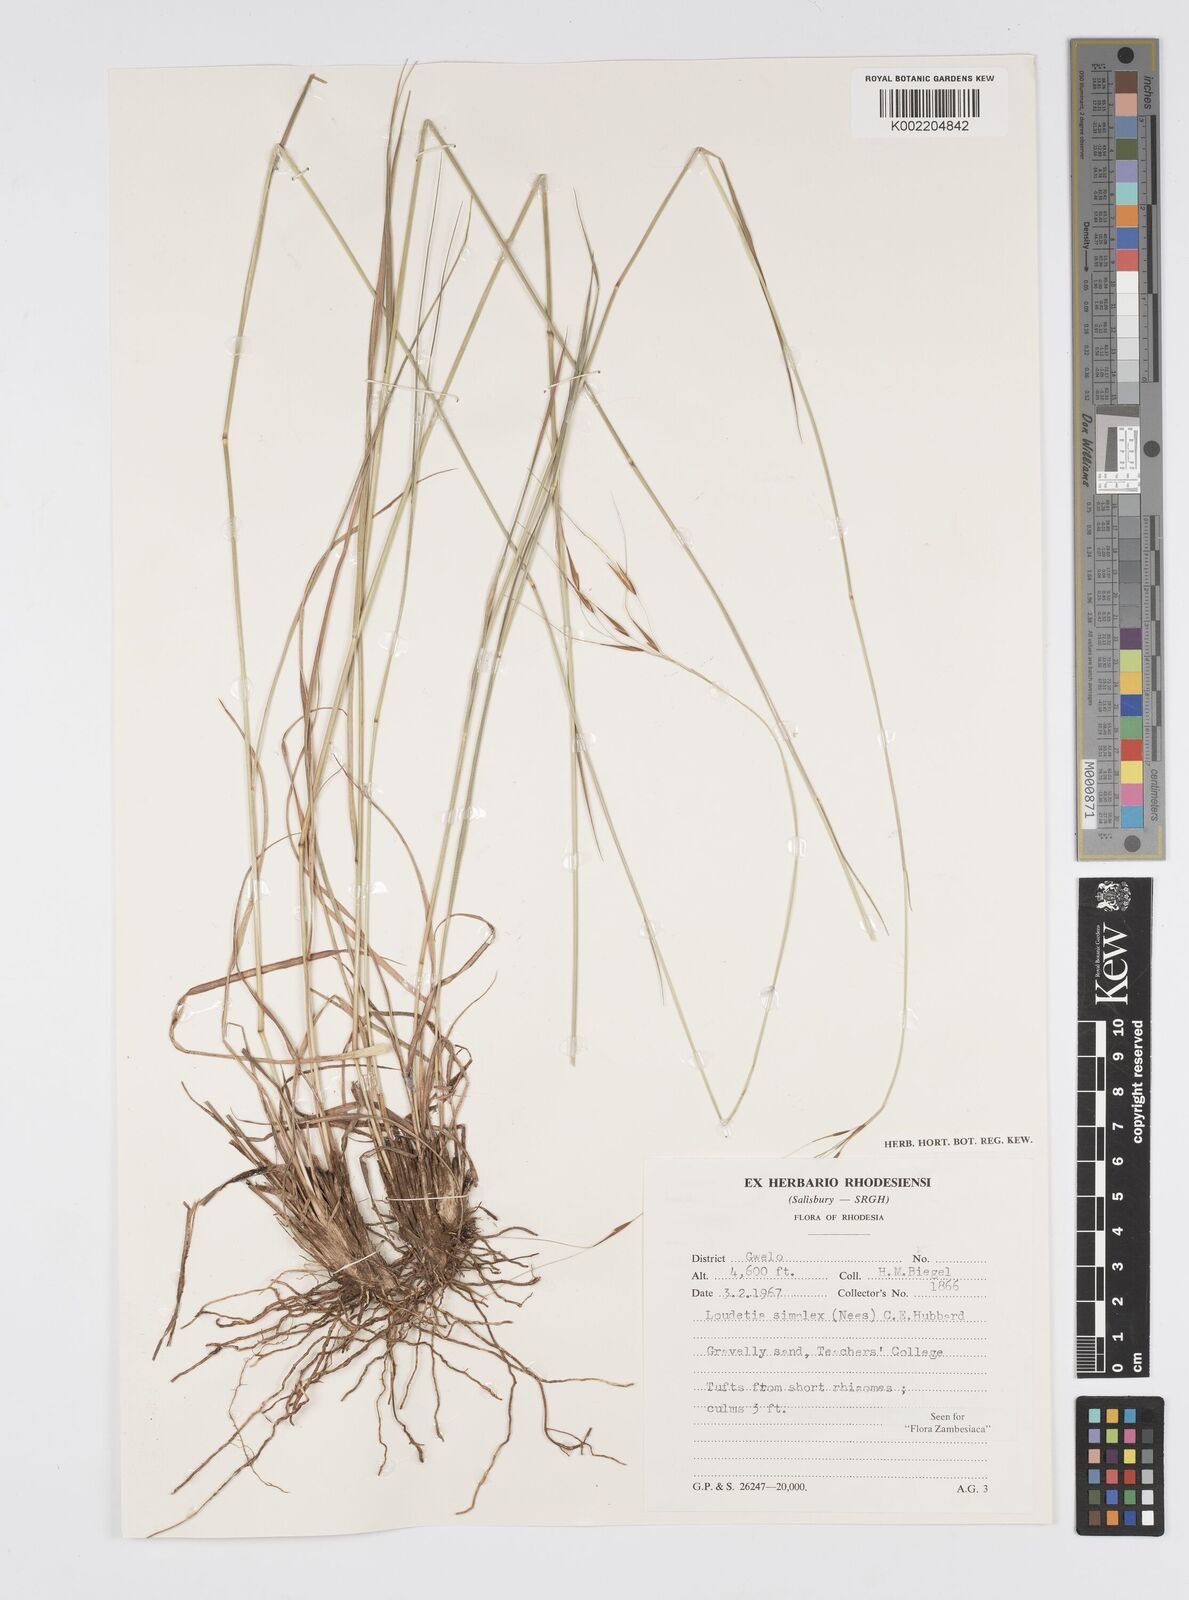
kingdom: Plantae
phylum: Tracheophyta
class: Liliopsida
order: Poales
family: Poaceae
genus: Loudetia
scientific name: Loudetia simplex
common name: Common russet grass
